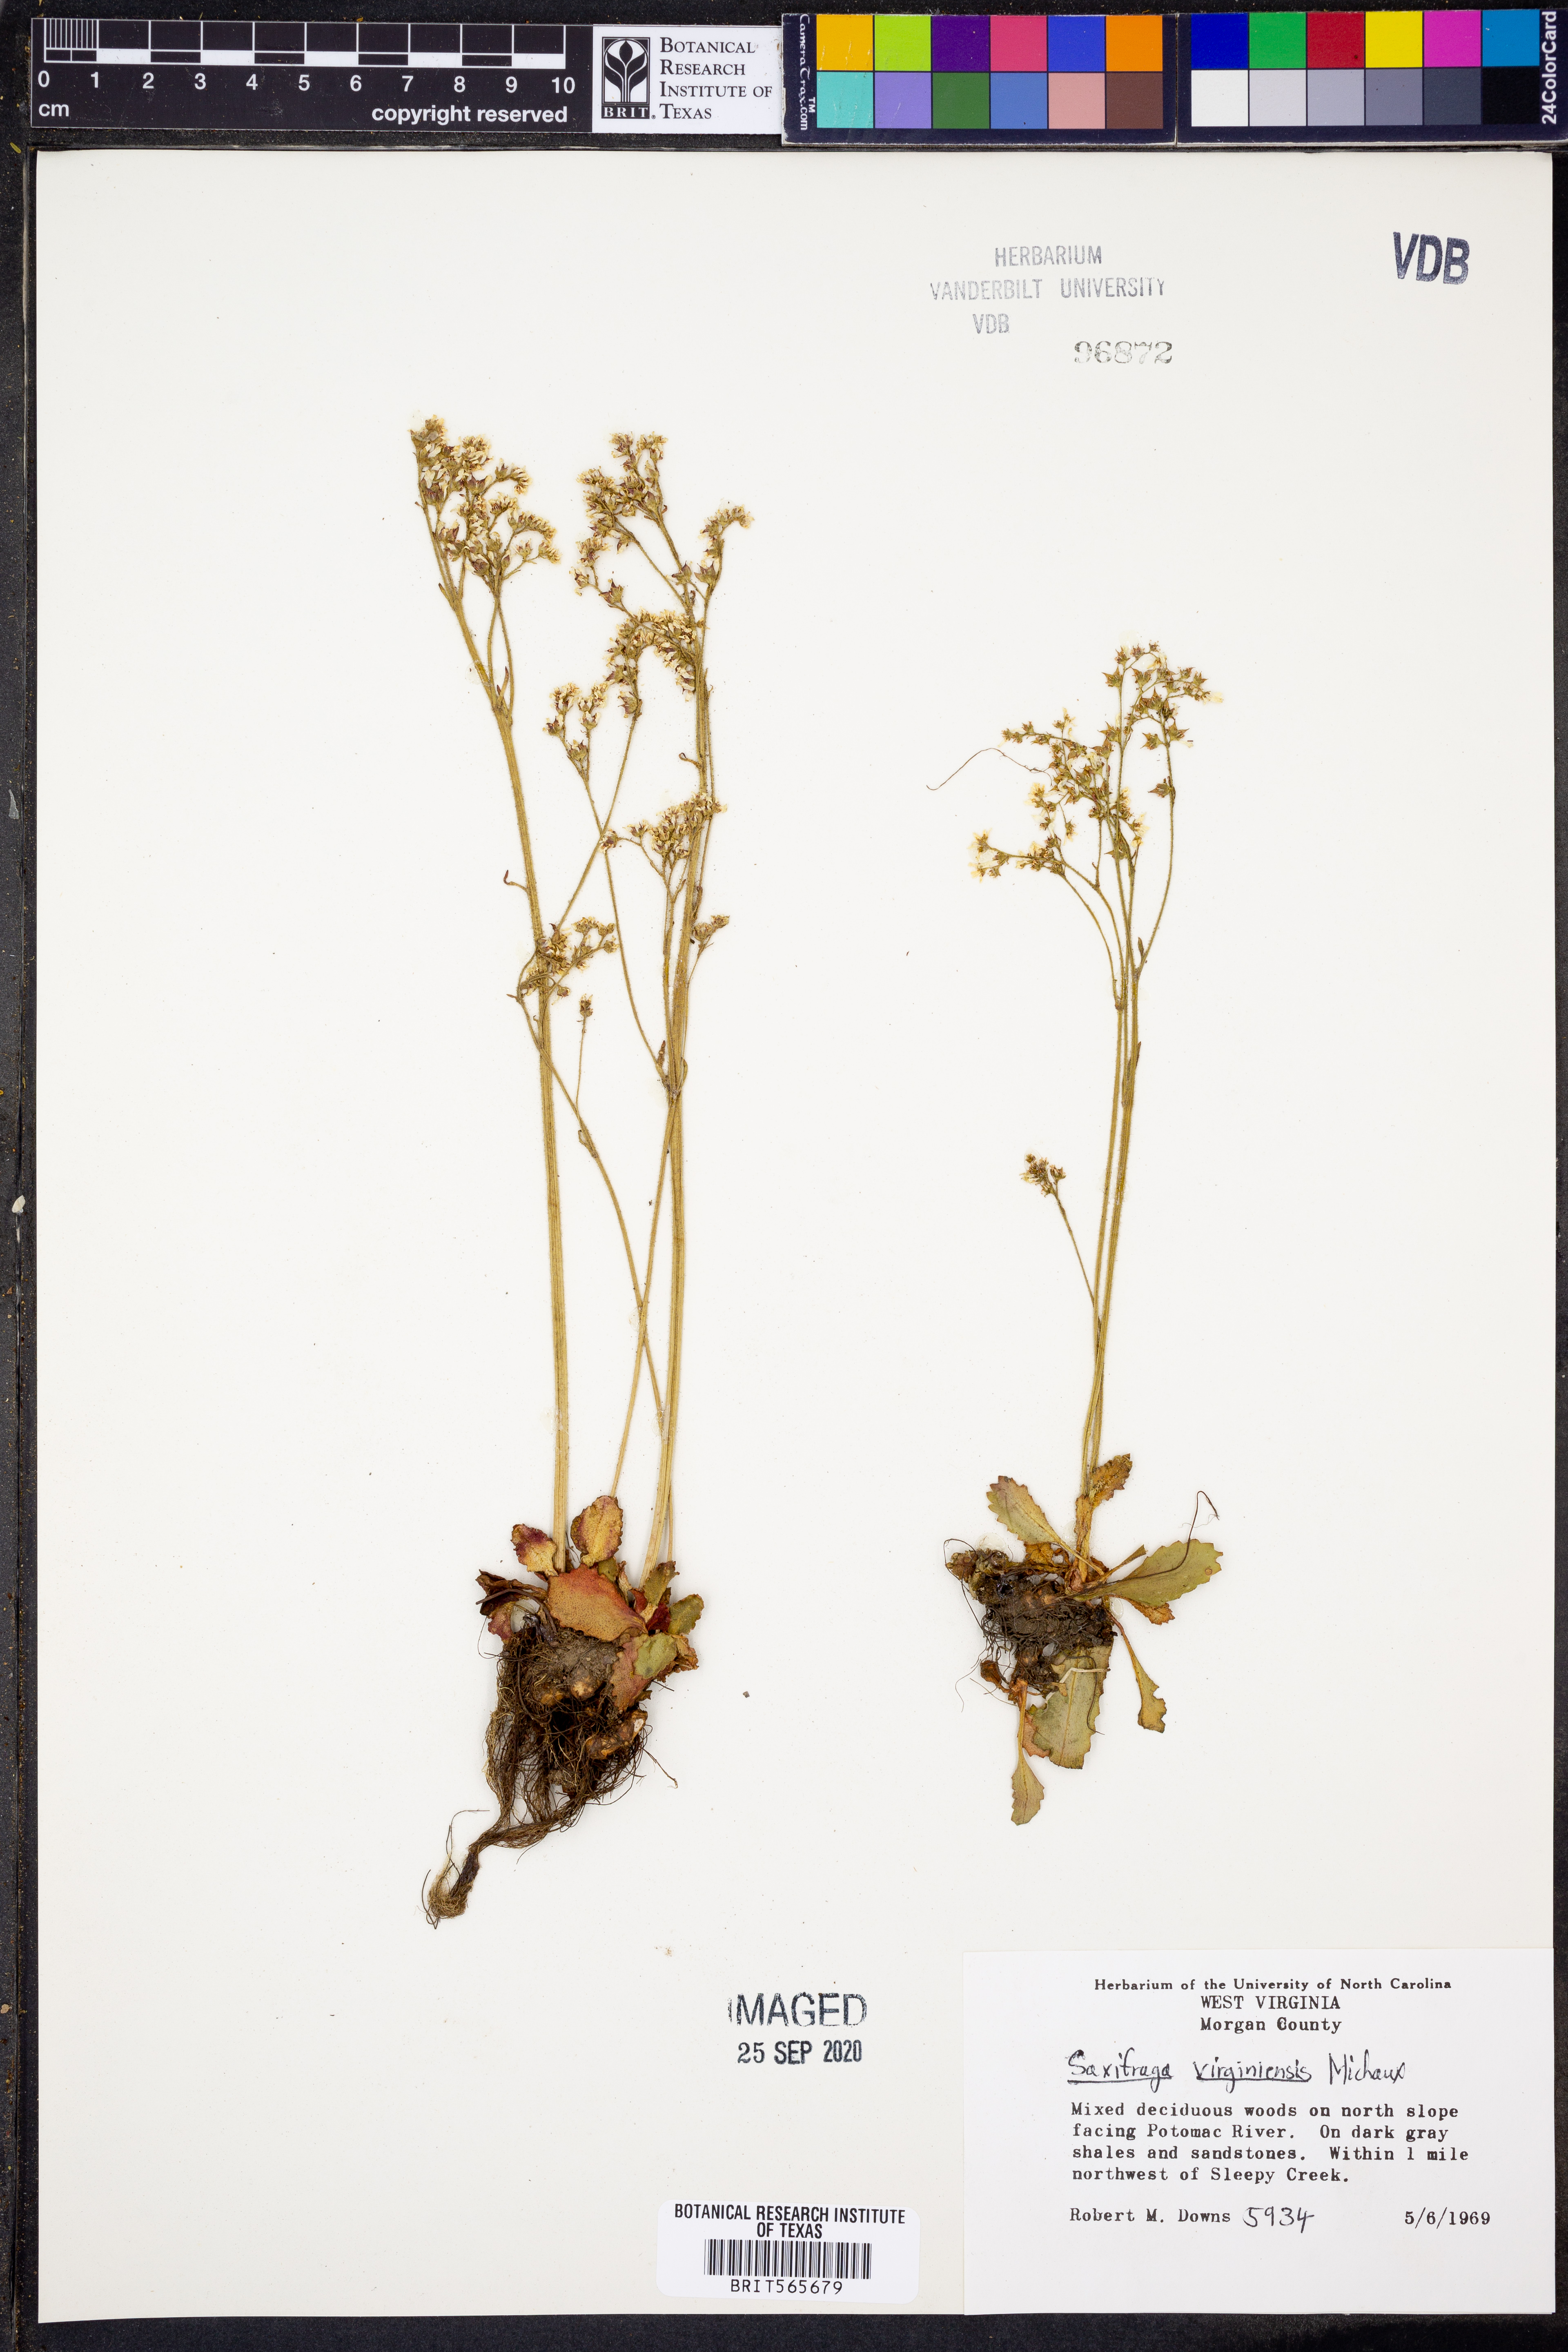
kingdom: Plantae
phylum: Tracheophyta
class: Magnoliopsida
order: Saxifragales
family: Saxifragaceae
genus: Micranthes
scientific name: Micranthes virginiensis
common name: Early saxifrage
